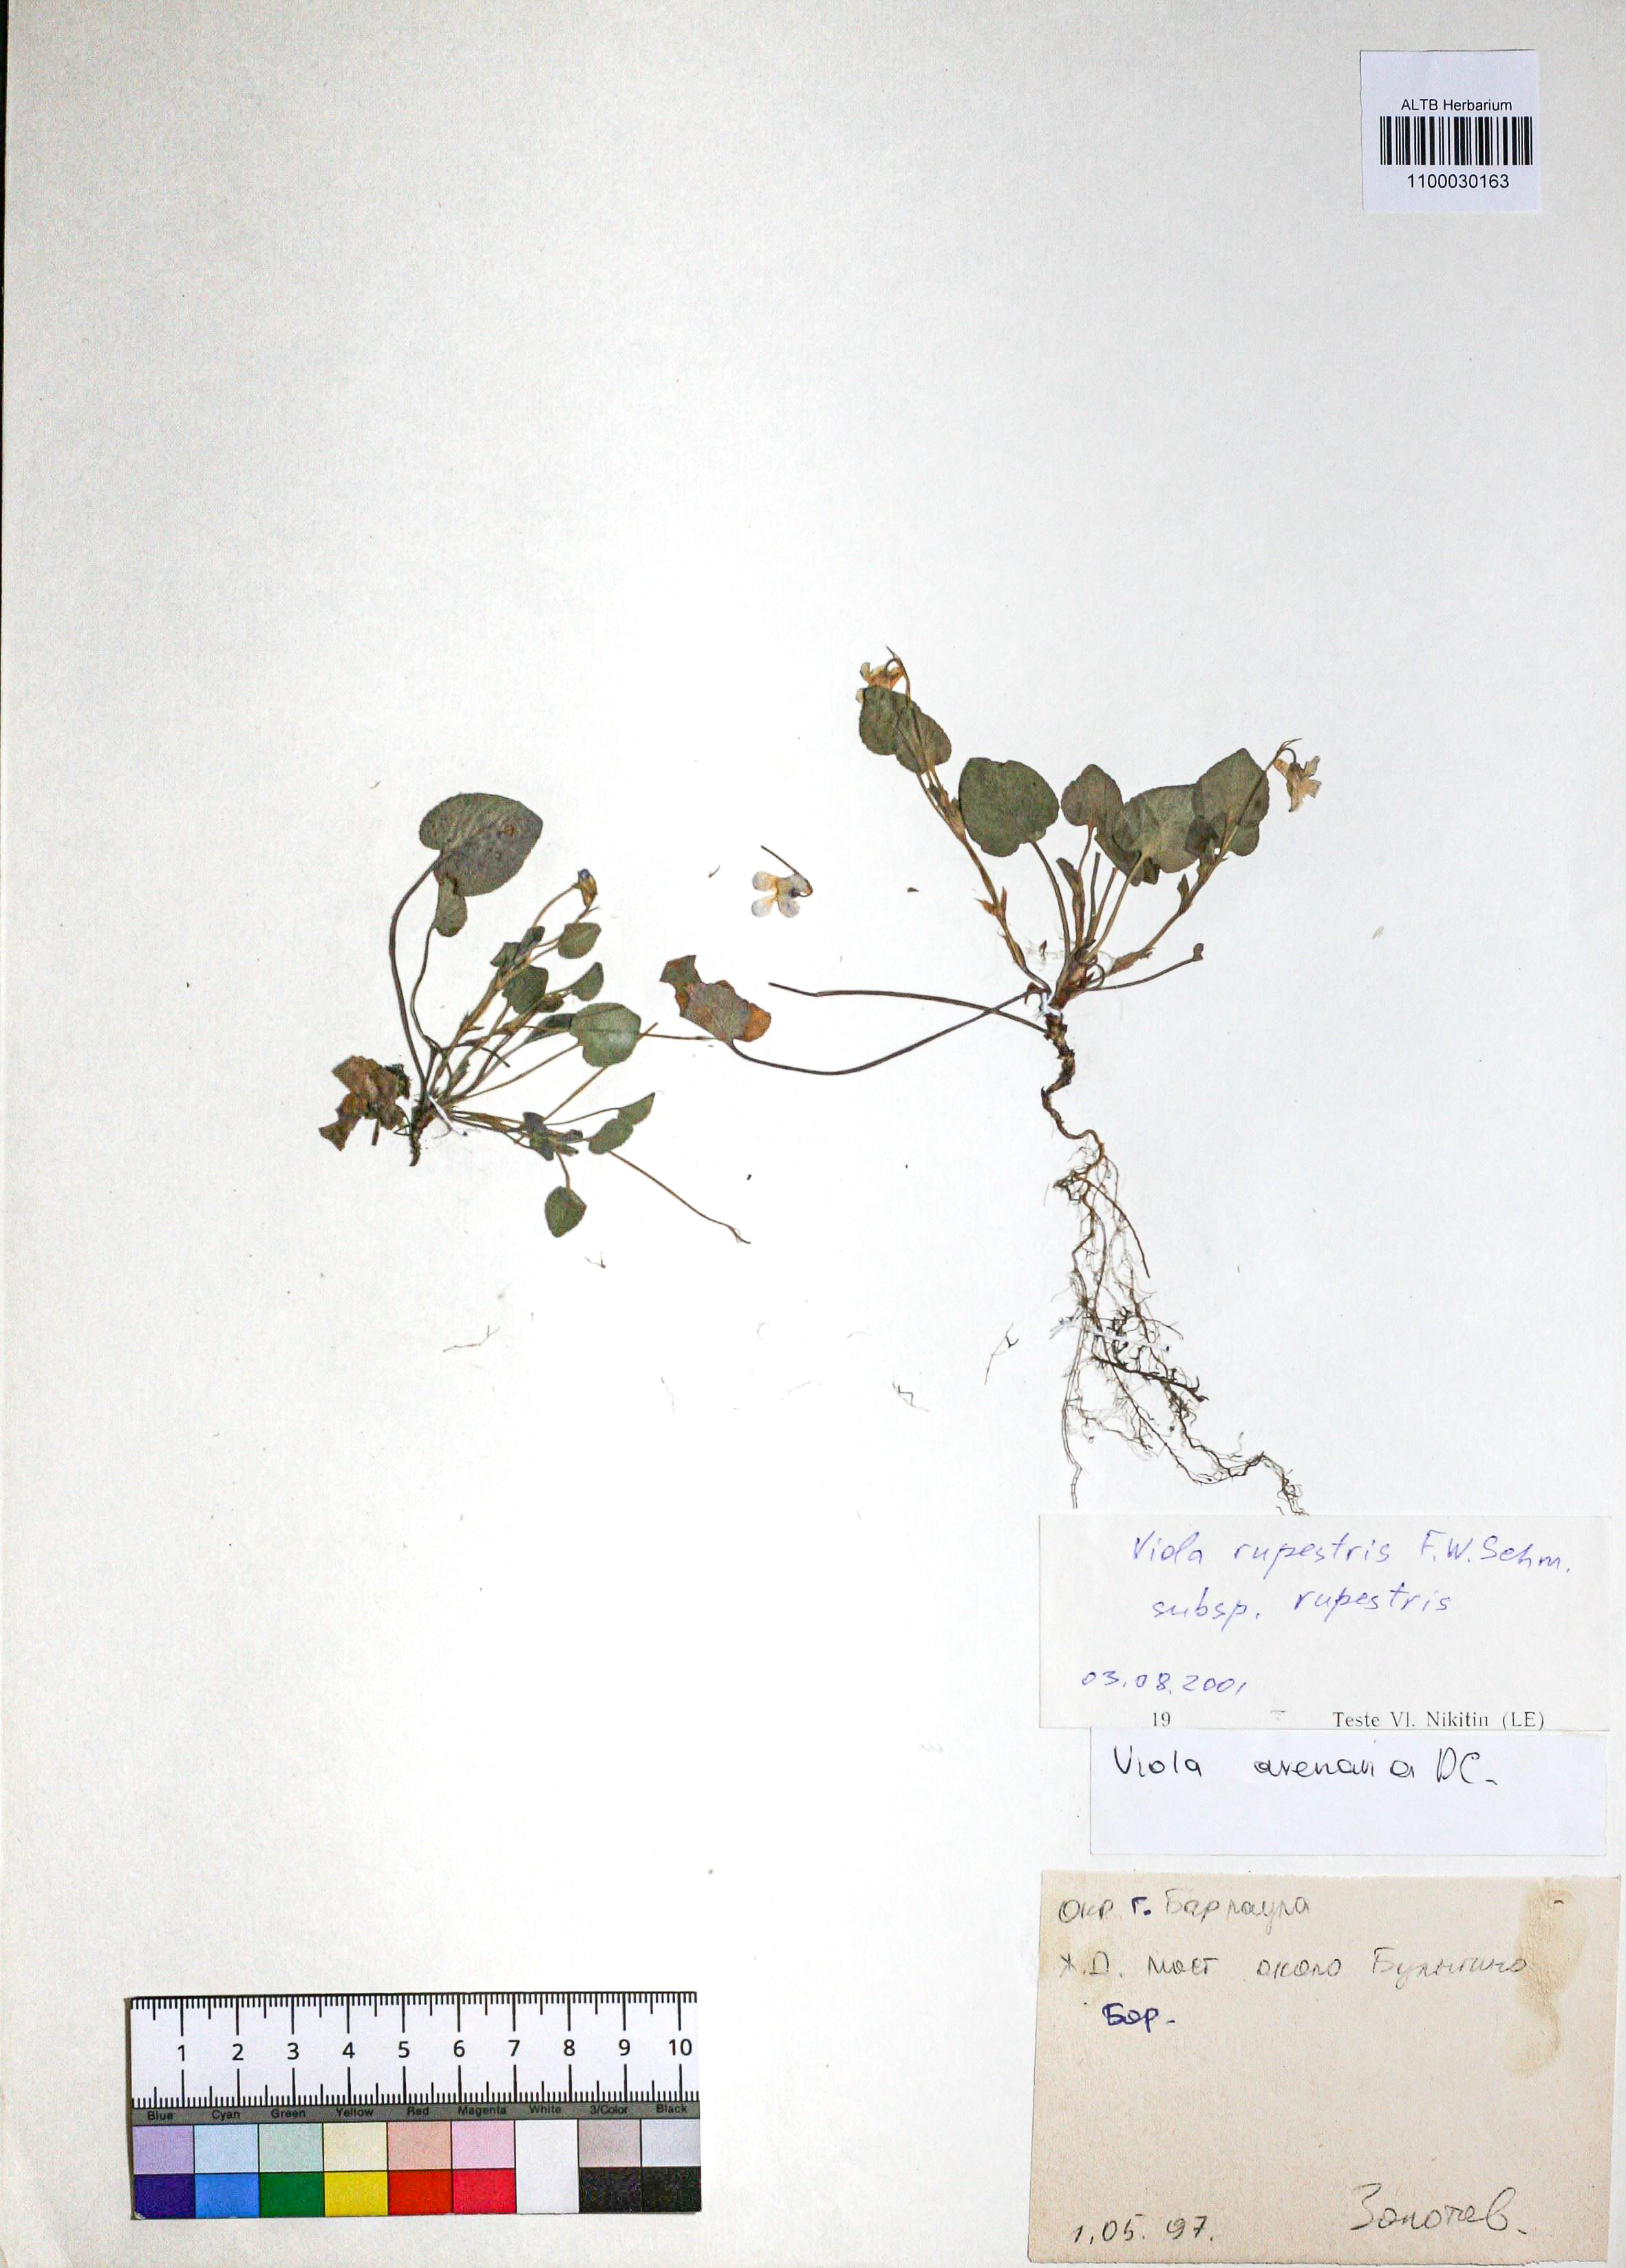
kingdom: Plantae
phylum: Tracheophyta
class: Magnoliopsida
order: Malpighiales
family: Violaceae
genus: Viola
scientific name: Viola rupestris
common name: Teesdale violet
